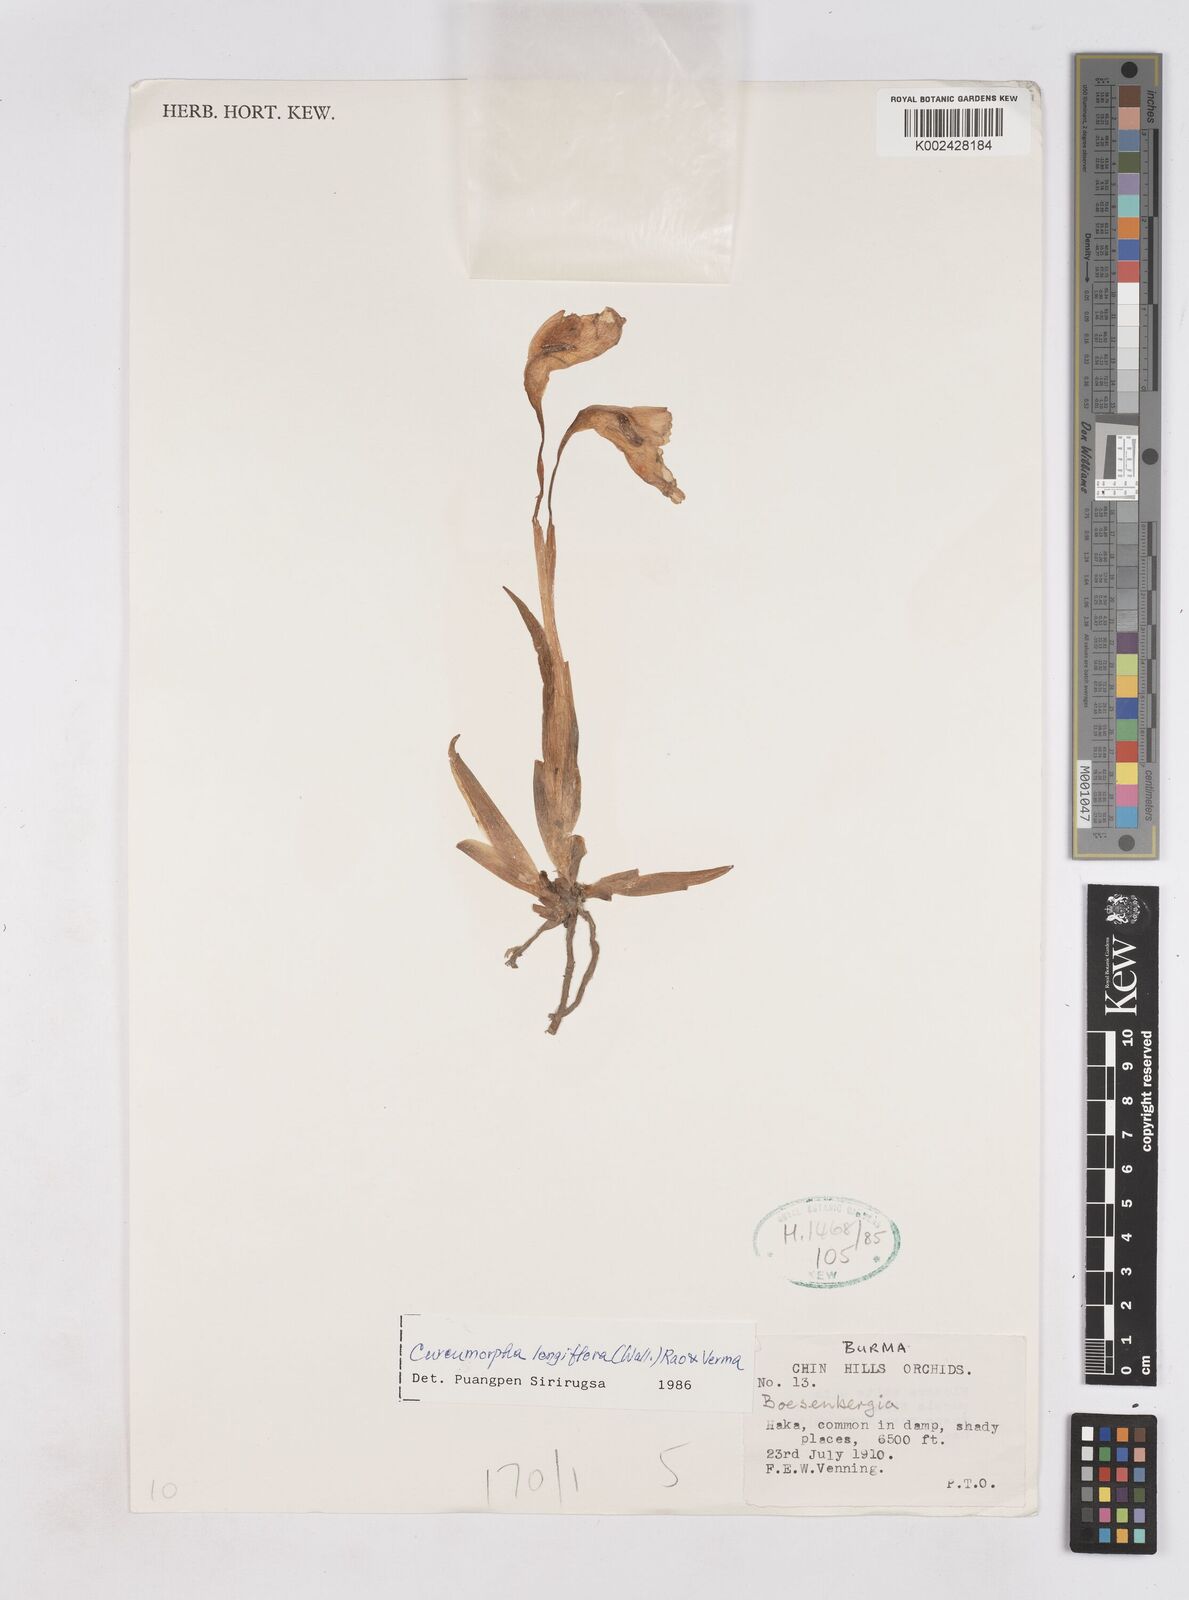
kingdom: Plantae
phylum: Tracheophyta
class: Liliopsida
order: Zingiberales
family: Zingiberaceae
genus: Boesenbergia
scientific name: Boesenbergia longiflora
